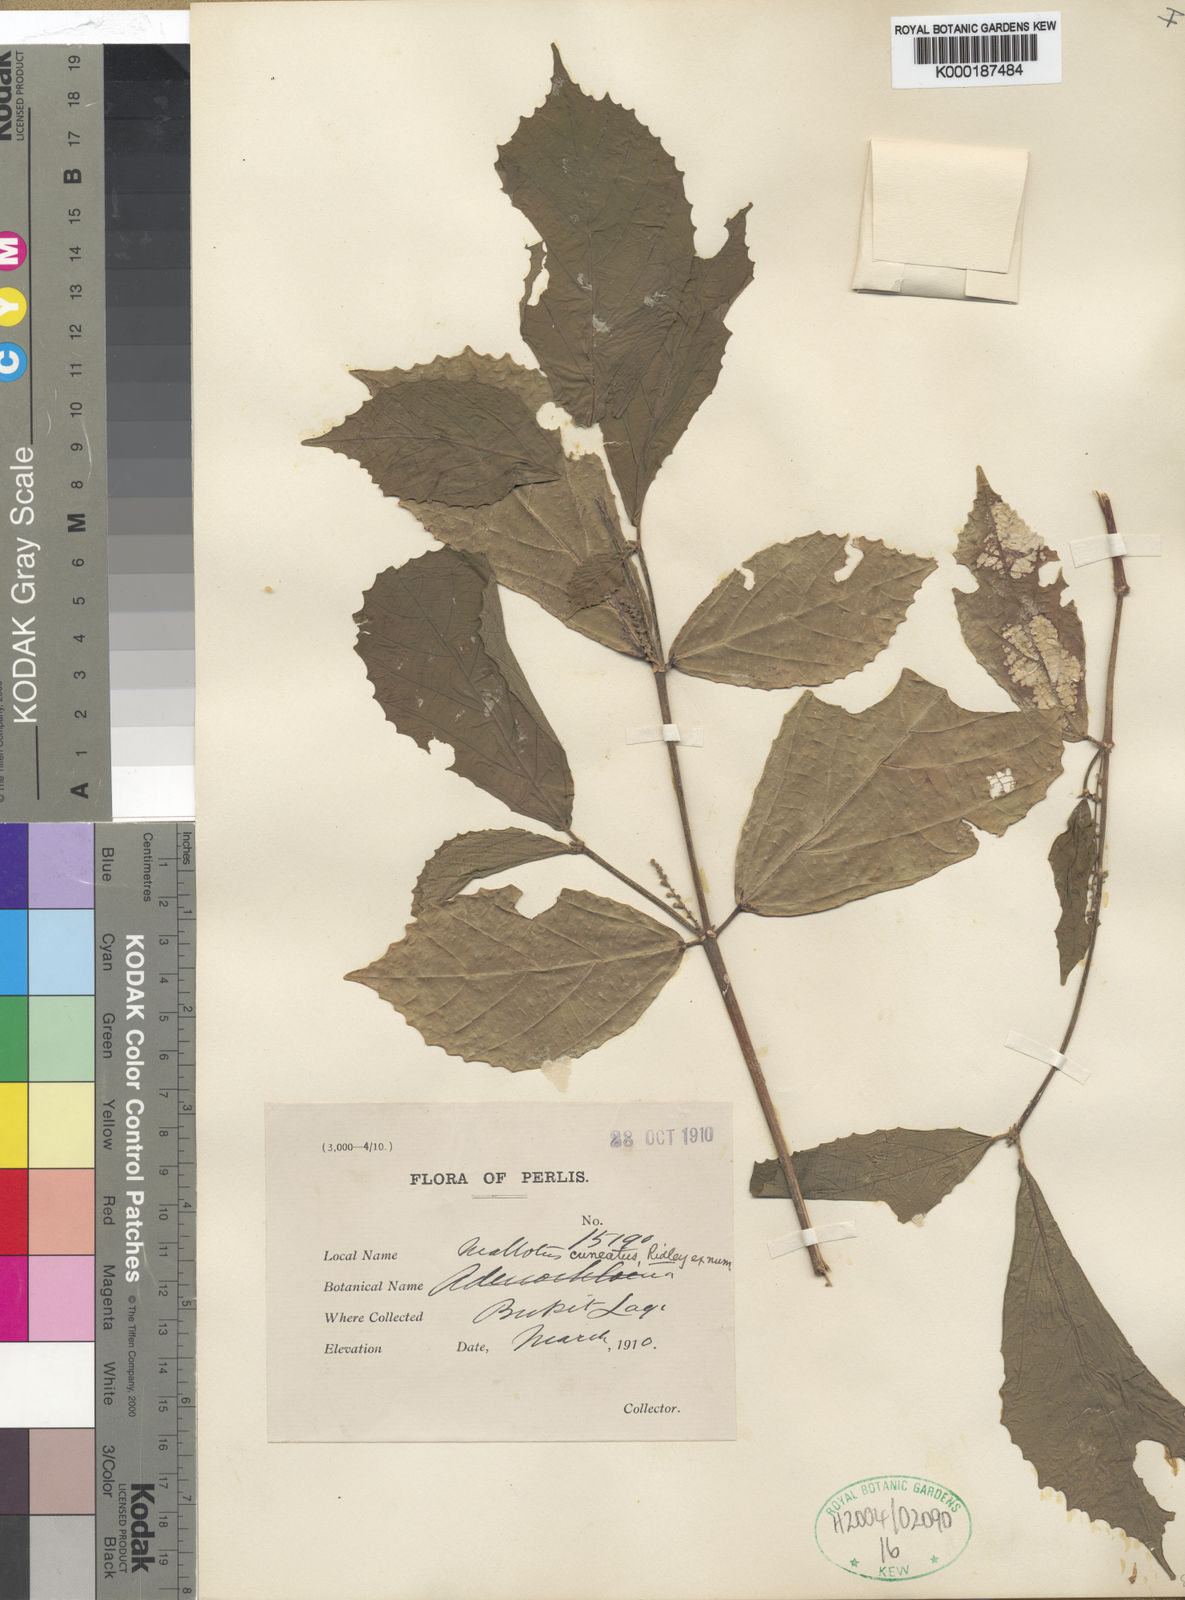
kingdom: Plantae
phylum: Tracheophyta
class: Magnoliopsida
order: Malpighiales
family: Euphorbiaceae
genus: Mallotus
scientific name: Mallotus
